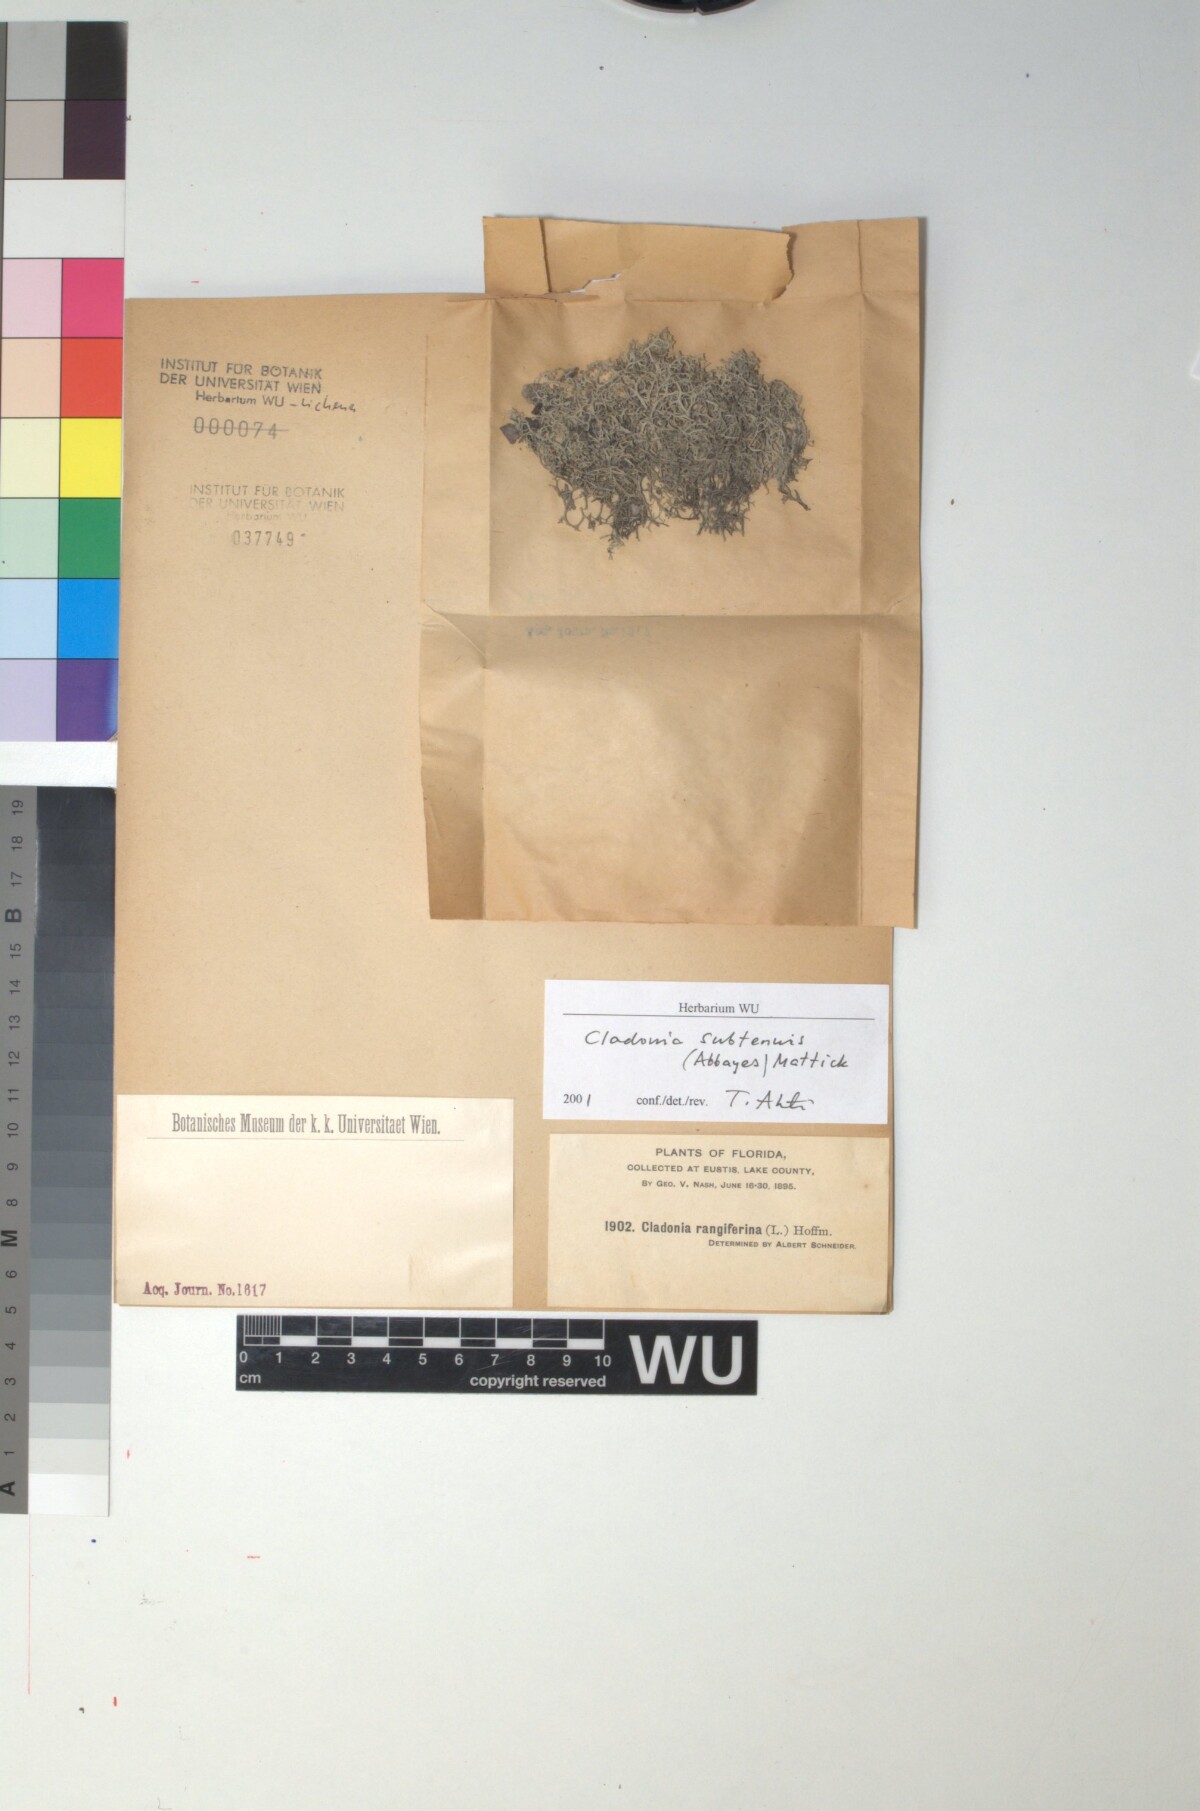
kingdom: Fungi
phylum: Ascomycota
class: Lecanoromycetes
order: Lecanorales
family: Cladoniaceae
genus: Cladonia
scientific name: Cladonia subtenuis
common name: Dixie reindeer lichen
